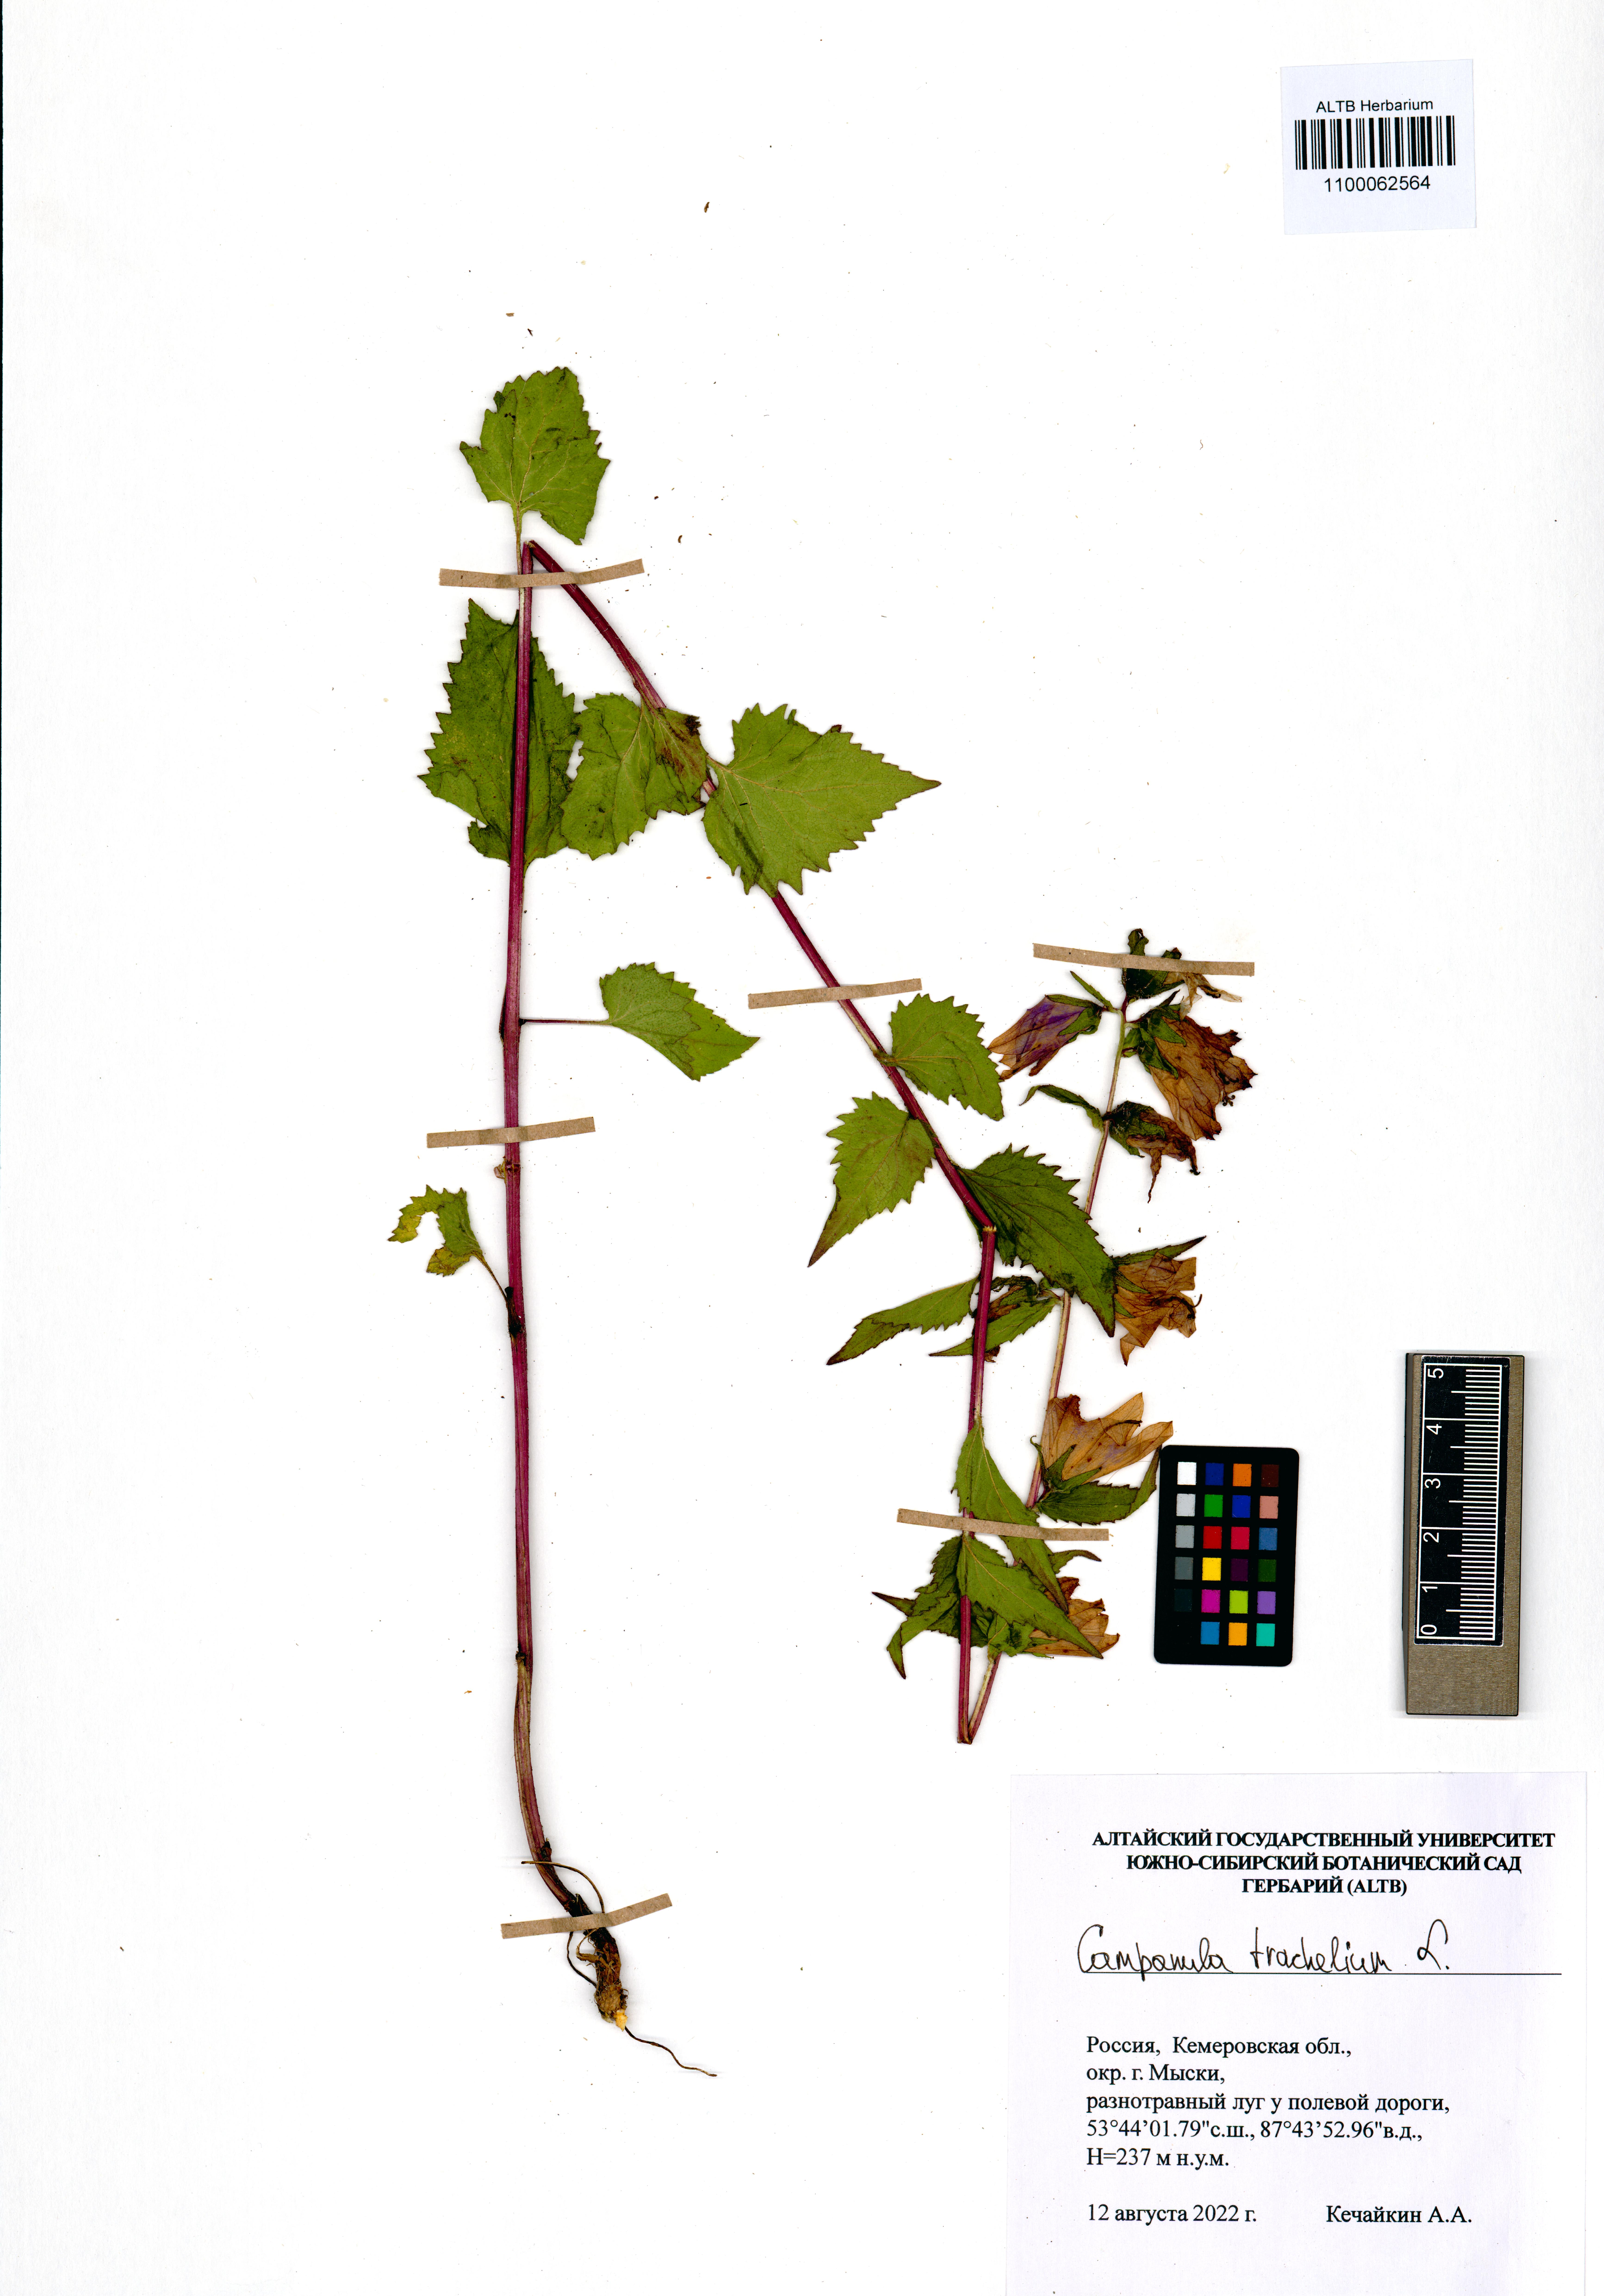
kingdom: Plantae
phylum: Tracheophyta
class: Magnoliopsida
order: Asterales
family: Campanulaceae
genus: Campanula
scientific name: Campanula trachelium
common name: Nettle-leaved bellflower
